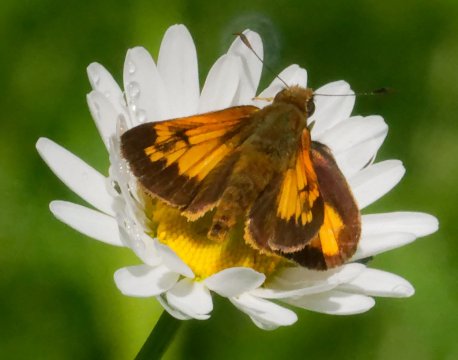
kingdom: Animalia
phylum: Arthropoda
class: Insecta
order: Lepidoptera
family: Hesperiidae
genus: Lon
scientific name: Lon hobomok
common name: Hobomok Skipper
